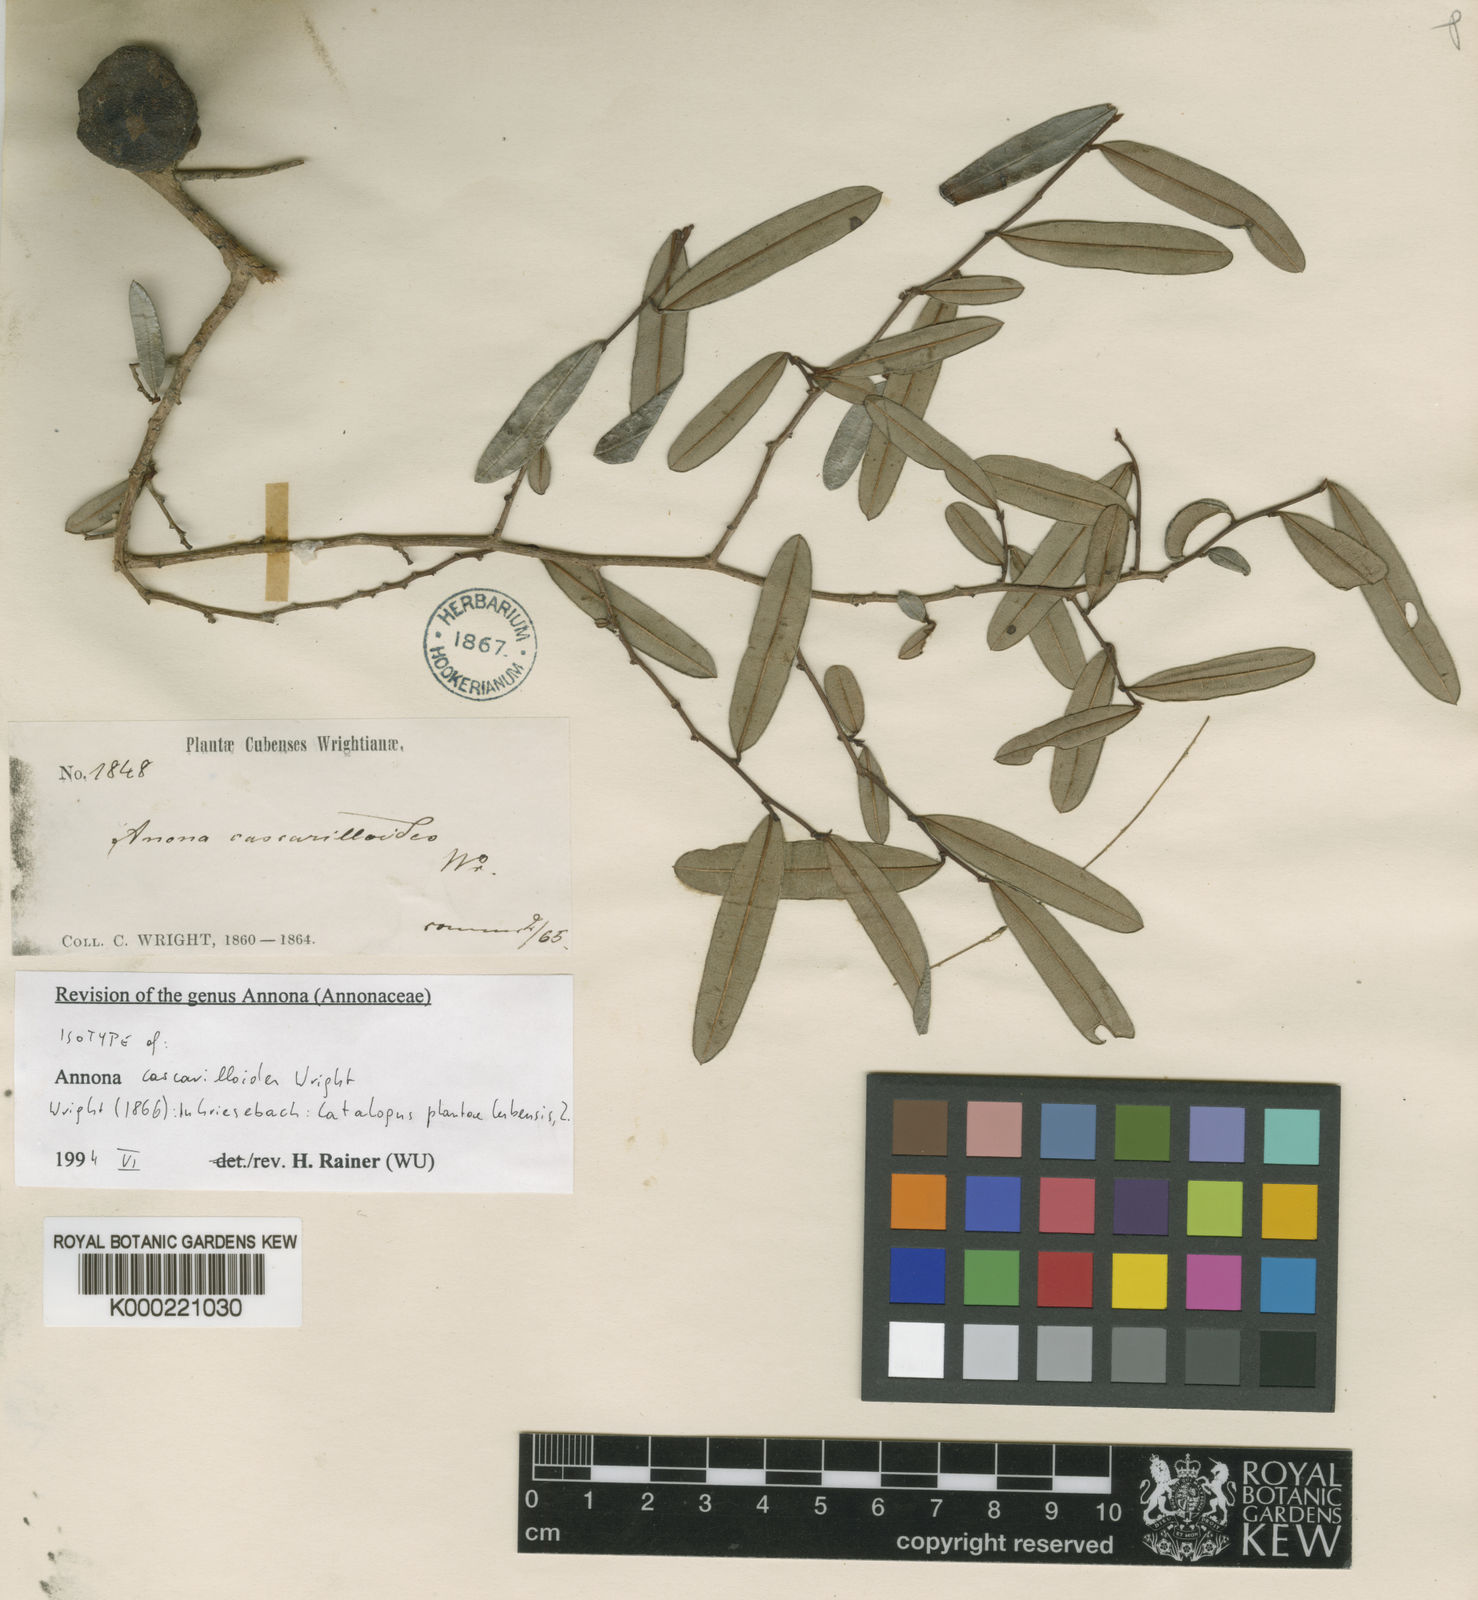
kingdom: Plantae
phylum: Tracheophyta
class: Magnoliopsida
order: Magnoliales
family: Annonaceae
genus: Annona
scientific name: Annona cascarilloides
